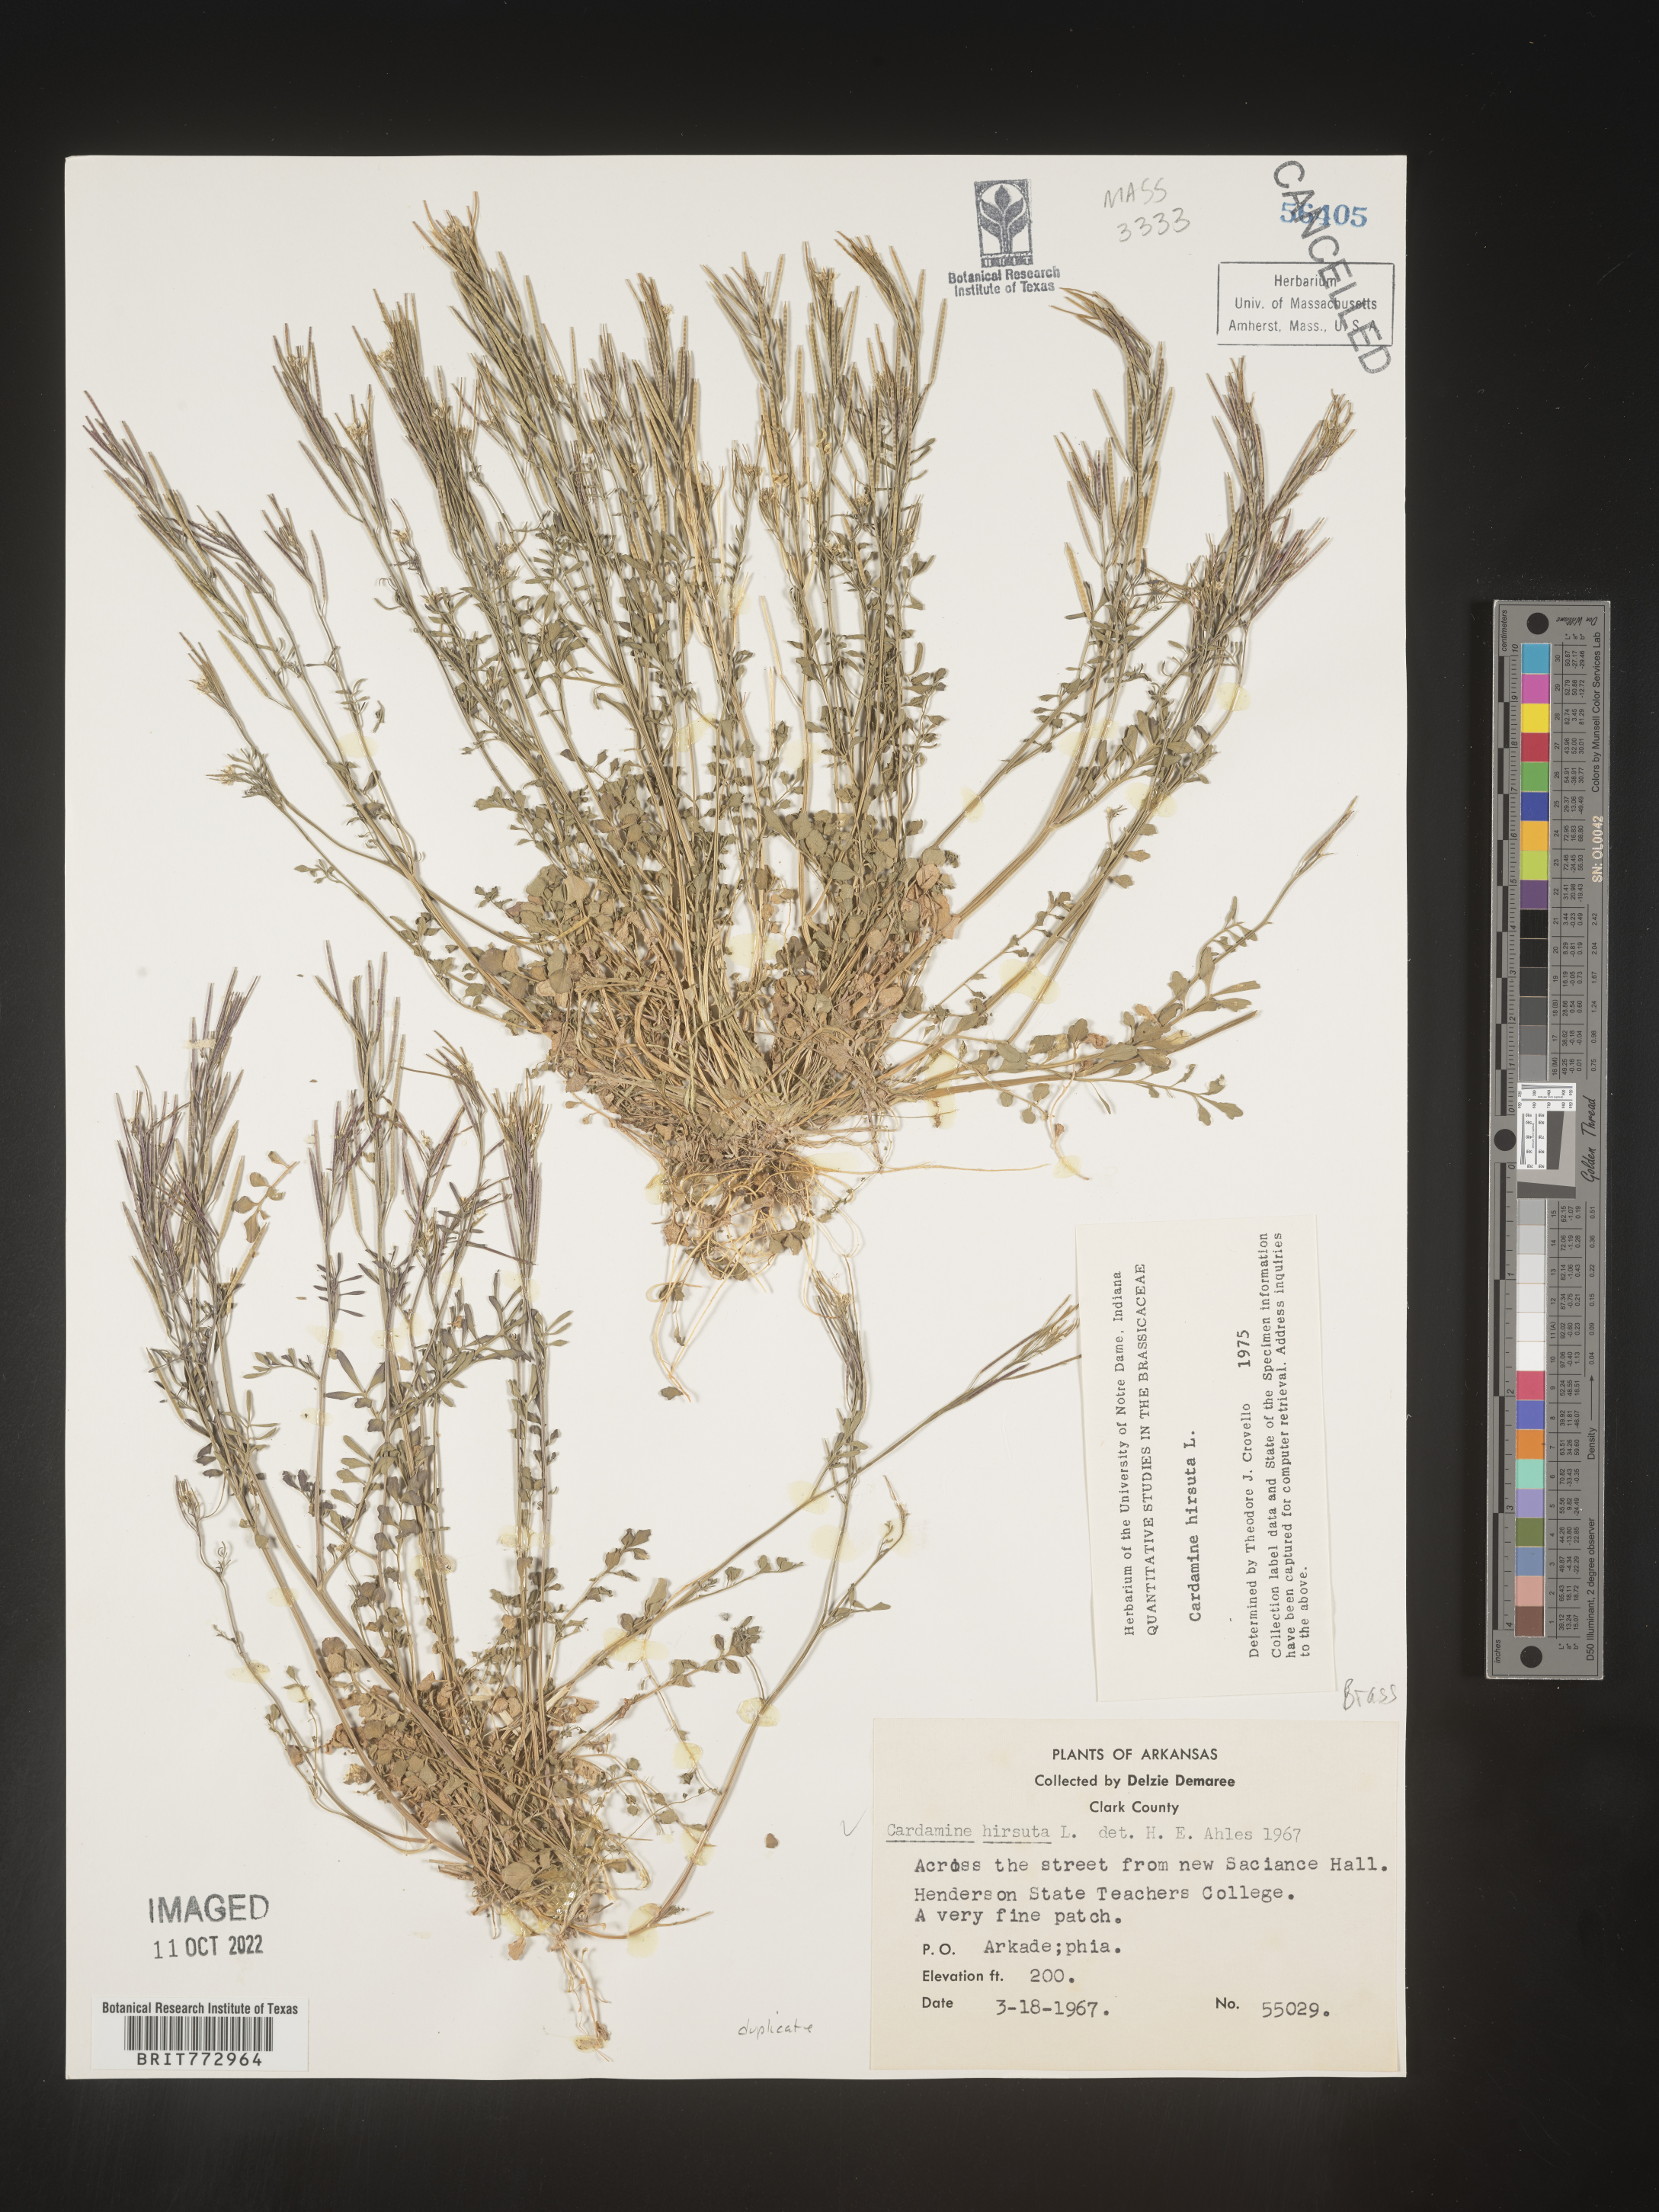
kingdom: Plantae
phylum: Tracheophyta
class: Magnoliopsida
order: Brassicales
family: Brassicaceae
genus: Cardamine
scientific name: Cardamine hirsuta
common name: Hairy bittercress
